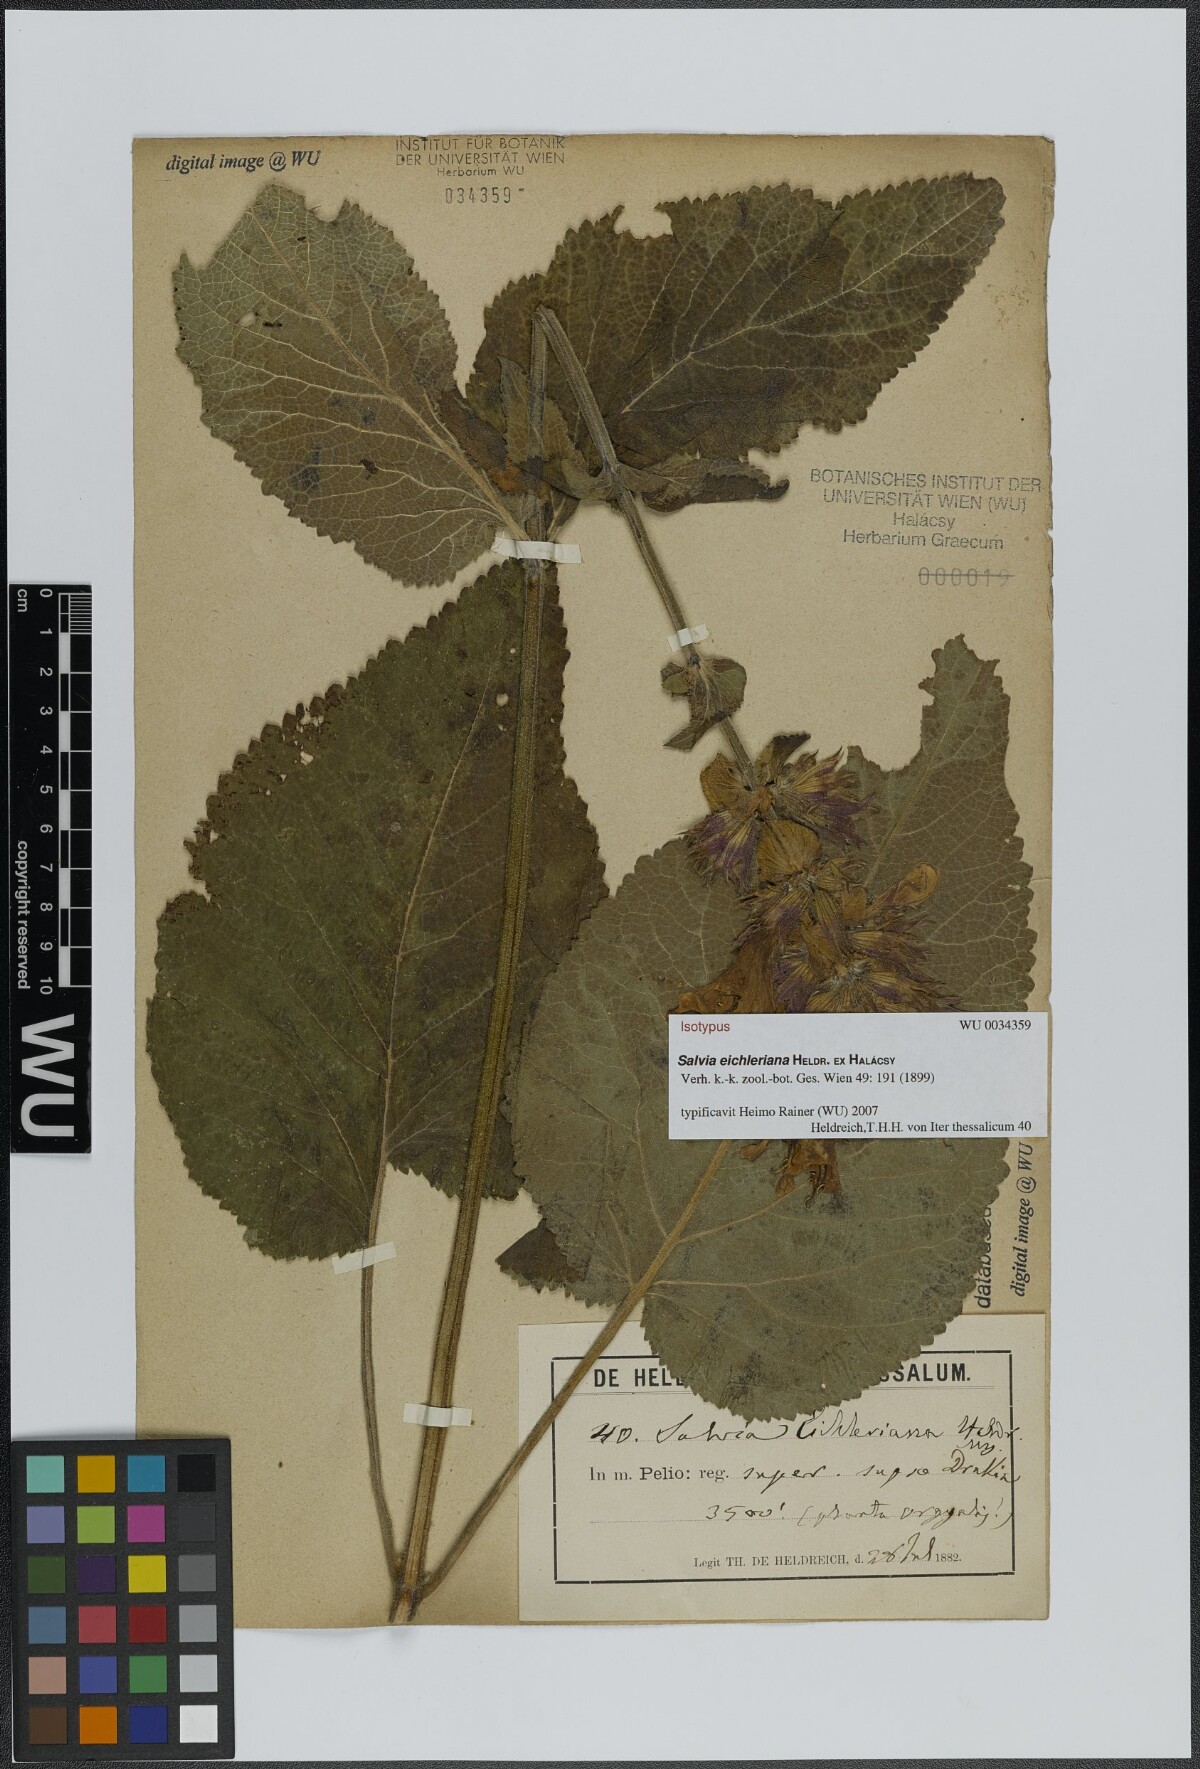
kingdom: Plantae
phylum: Tracheophyta
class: Magnoliopsida
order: Lamiales
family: Lamiaceae
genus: Salvia
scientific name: Salvia eichleriana
